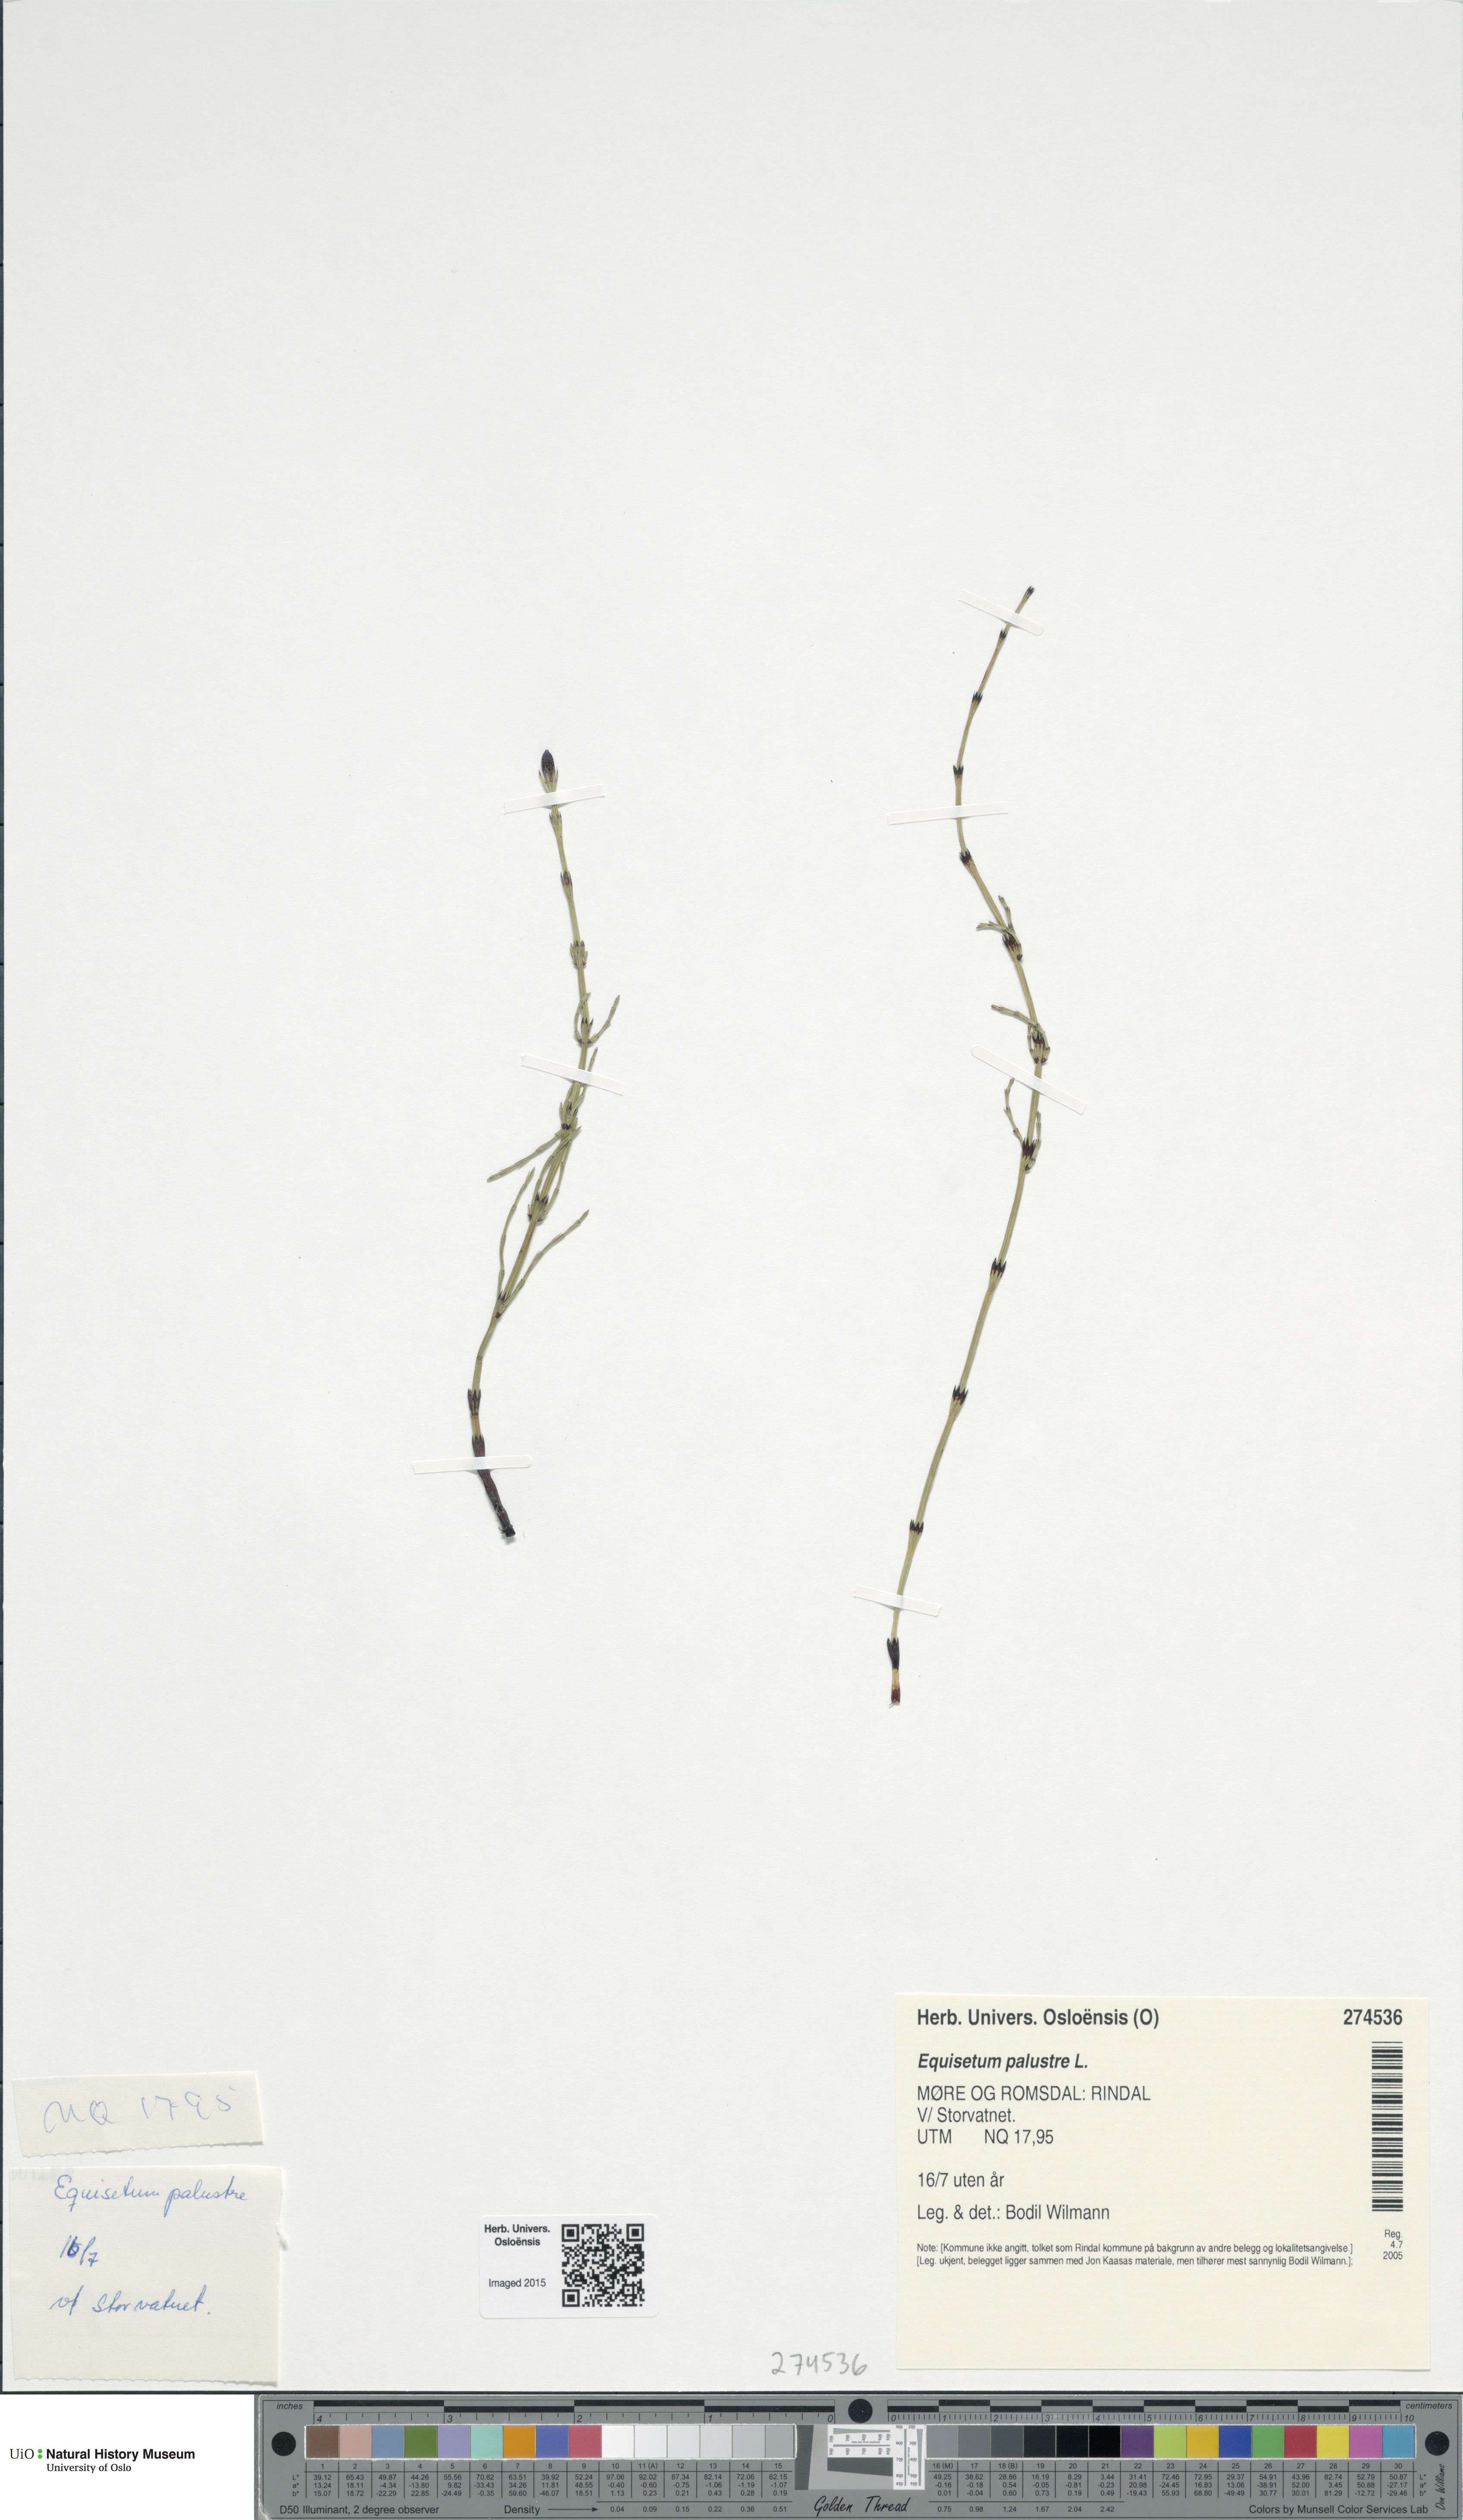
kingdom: Plantae
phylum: Tracheophyta
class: Polypodiopsida
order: Equisetales
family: Equisetaceae
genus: Equisetum
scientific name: Equisetum palustre
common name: Marsh horsetail
